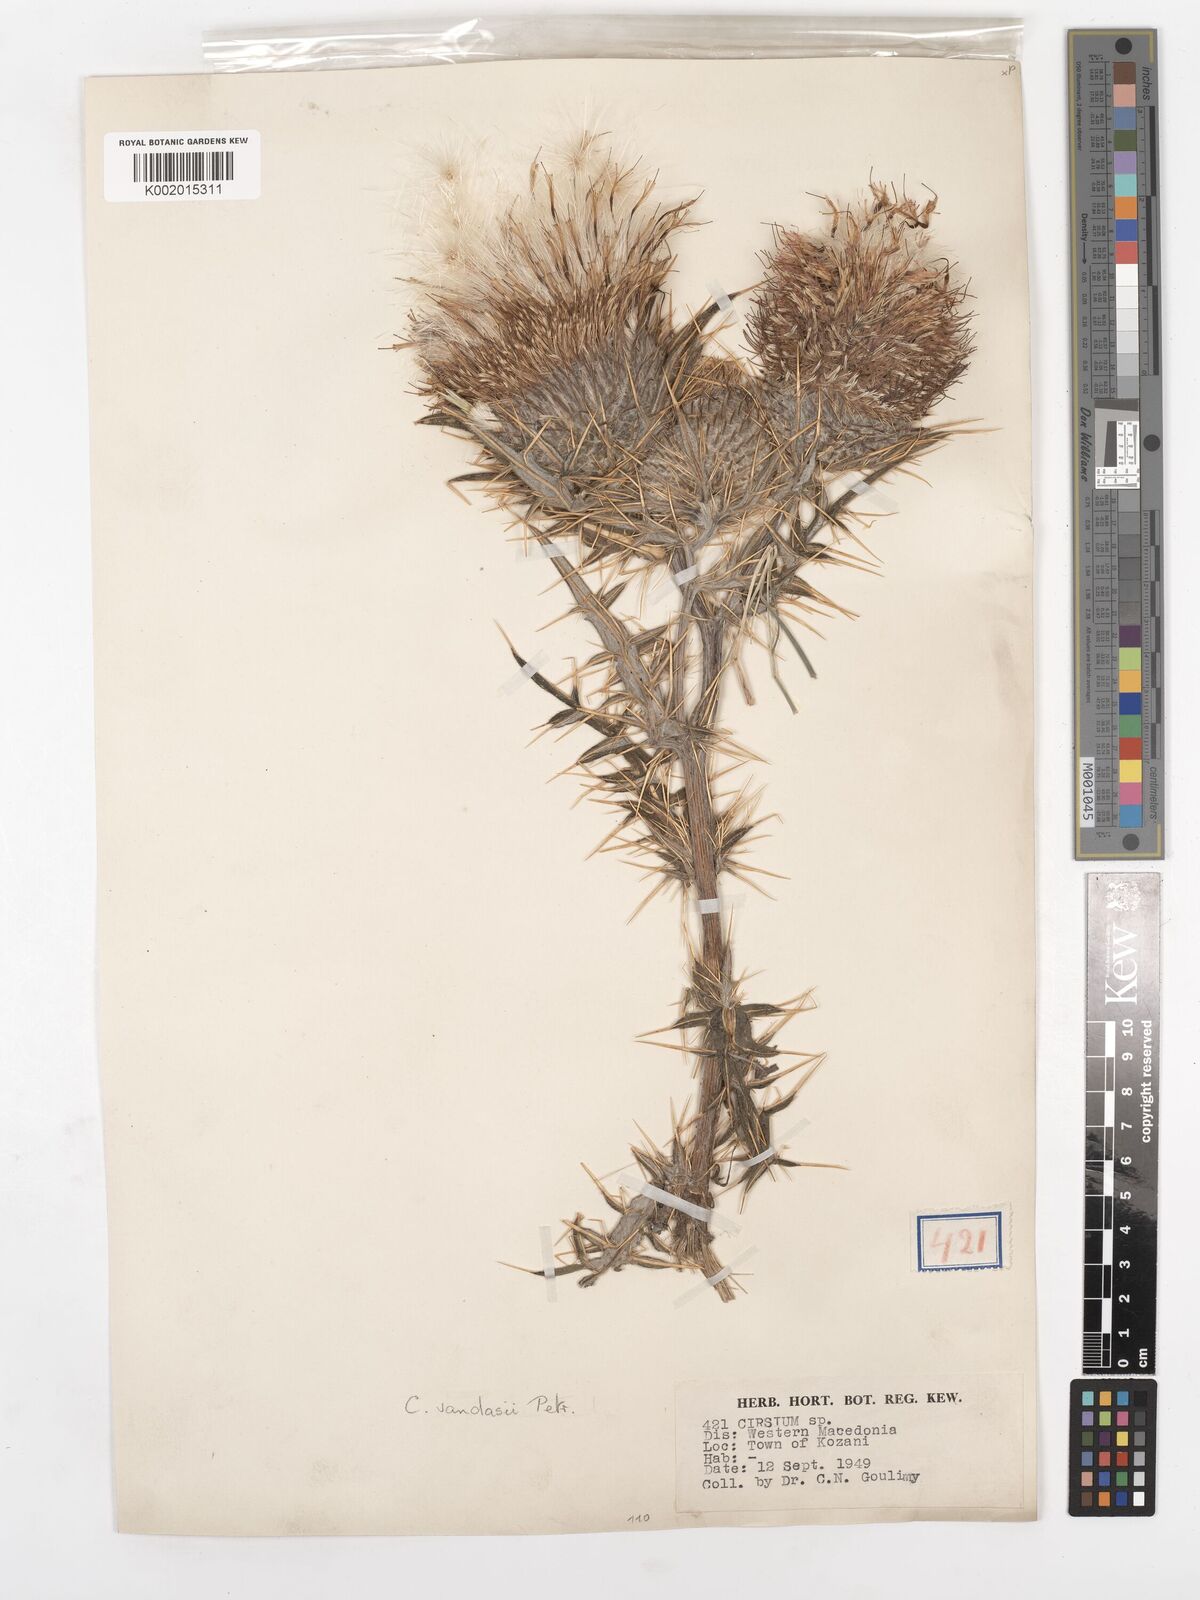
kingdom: Plantae
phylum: Tracheophyta
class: Magnoliopsida
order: Asterales
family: Asteraceae
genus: Lophiolepis
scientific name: Lophiolepis eriophora
